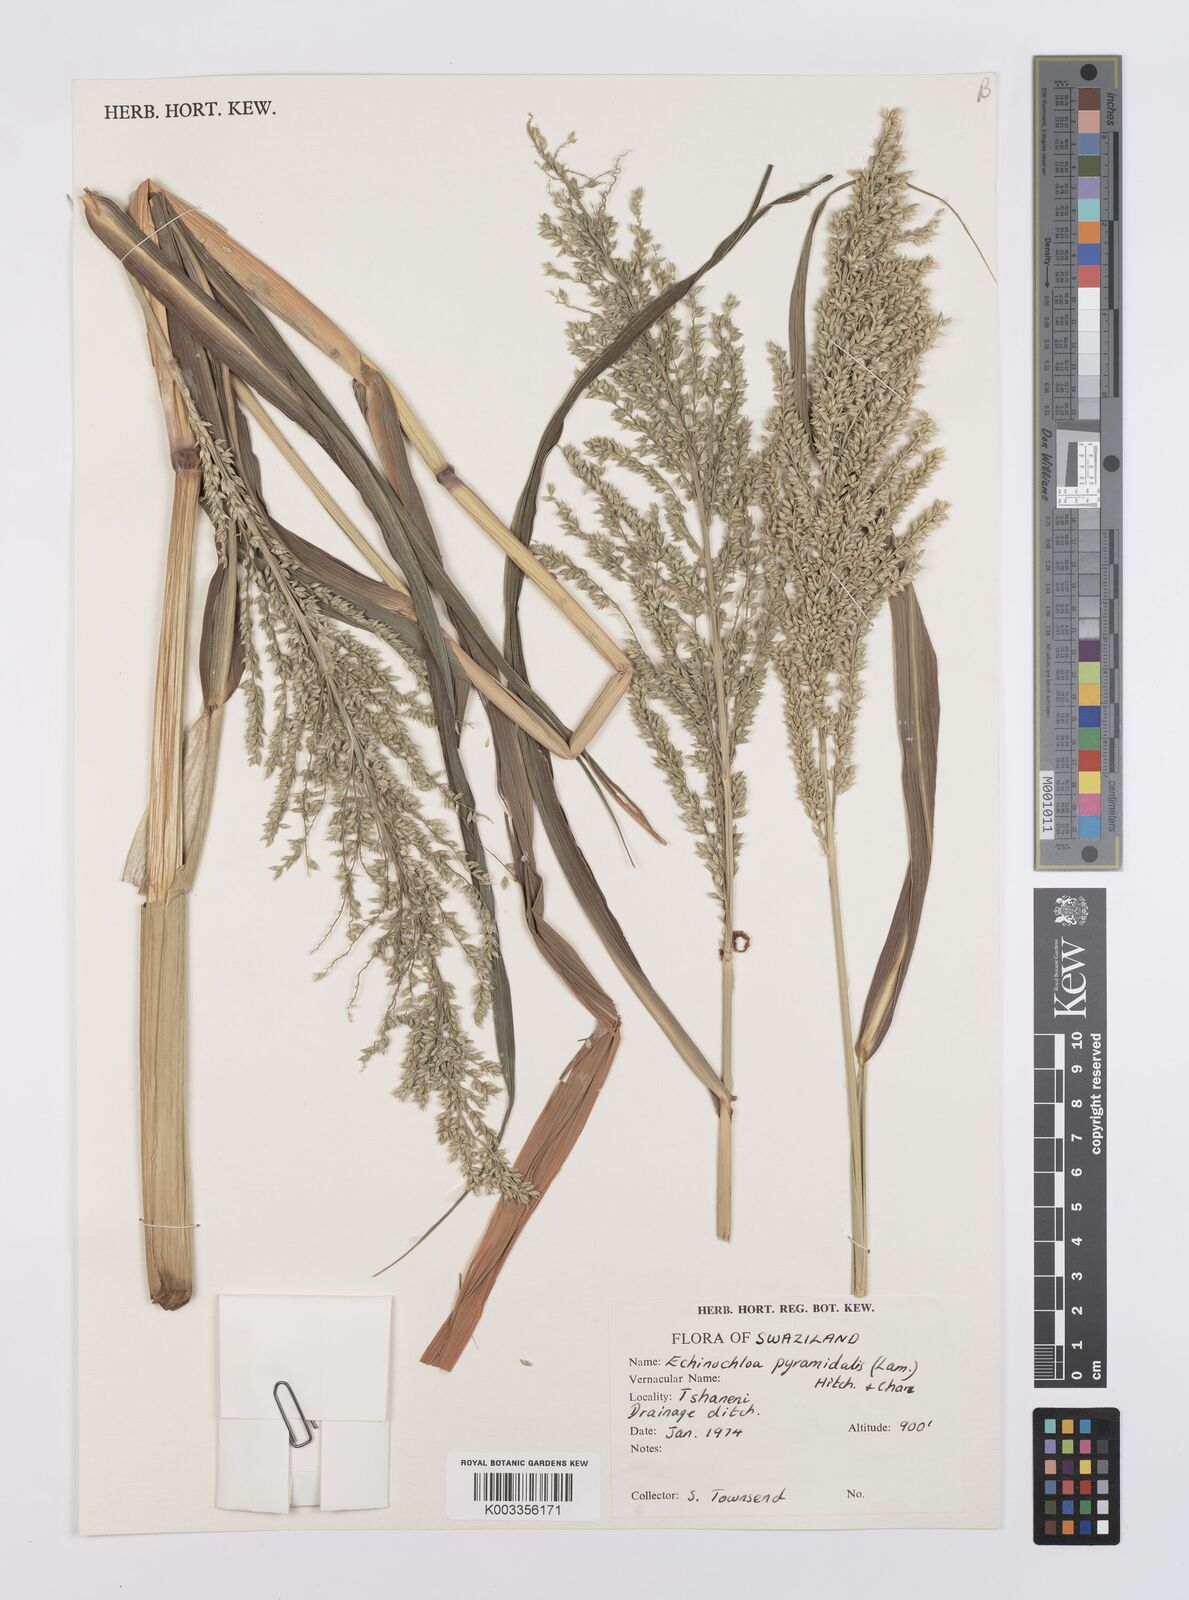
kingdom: Plantae
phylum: Tracheophyta
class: Liliopsida
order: Poales
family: Poaceae
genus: Echinochloa
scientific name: Echinochloa pyramidalis
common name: Antelope grass
